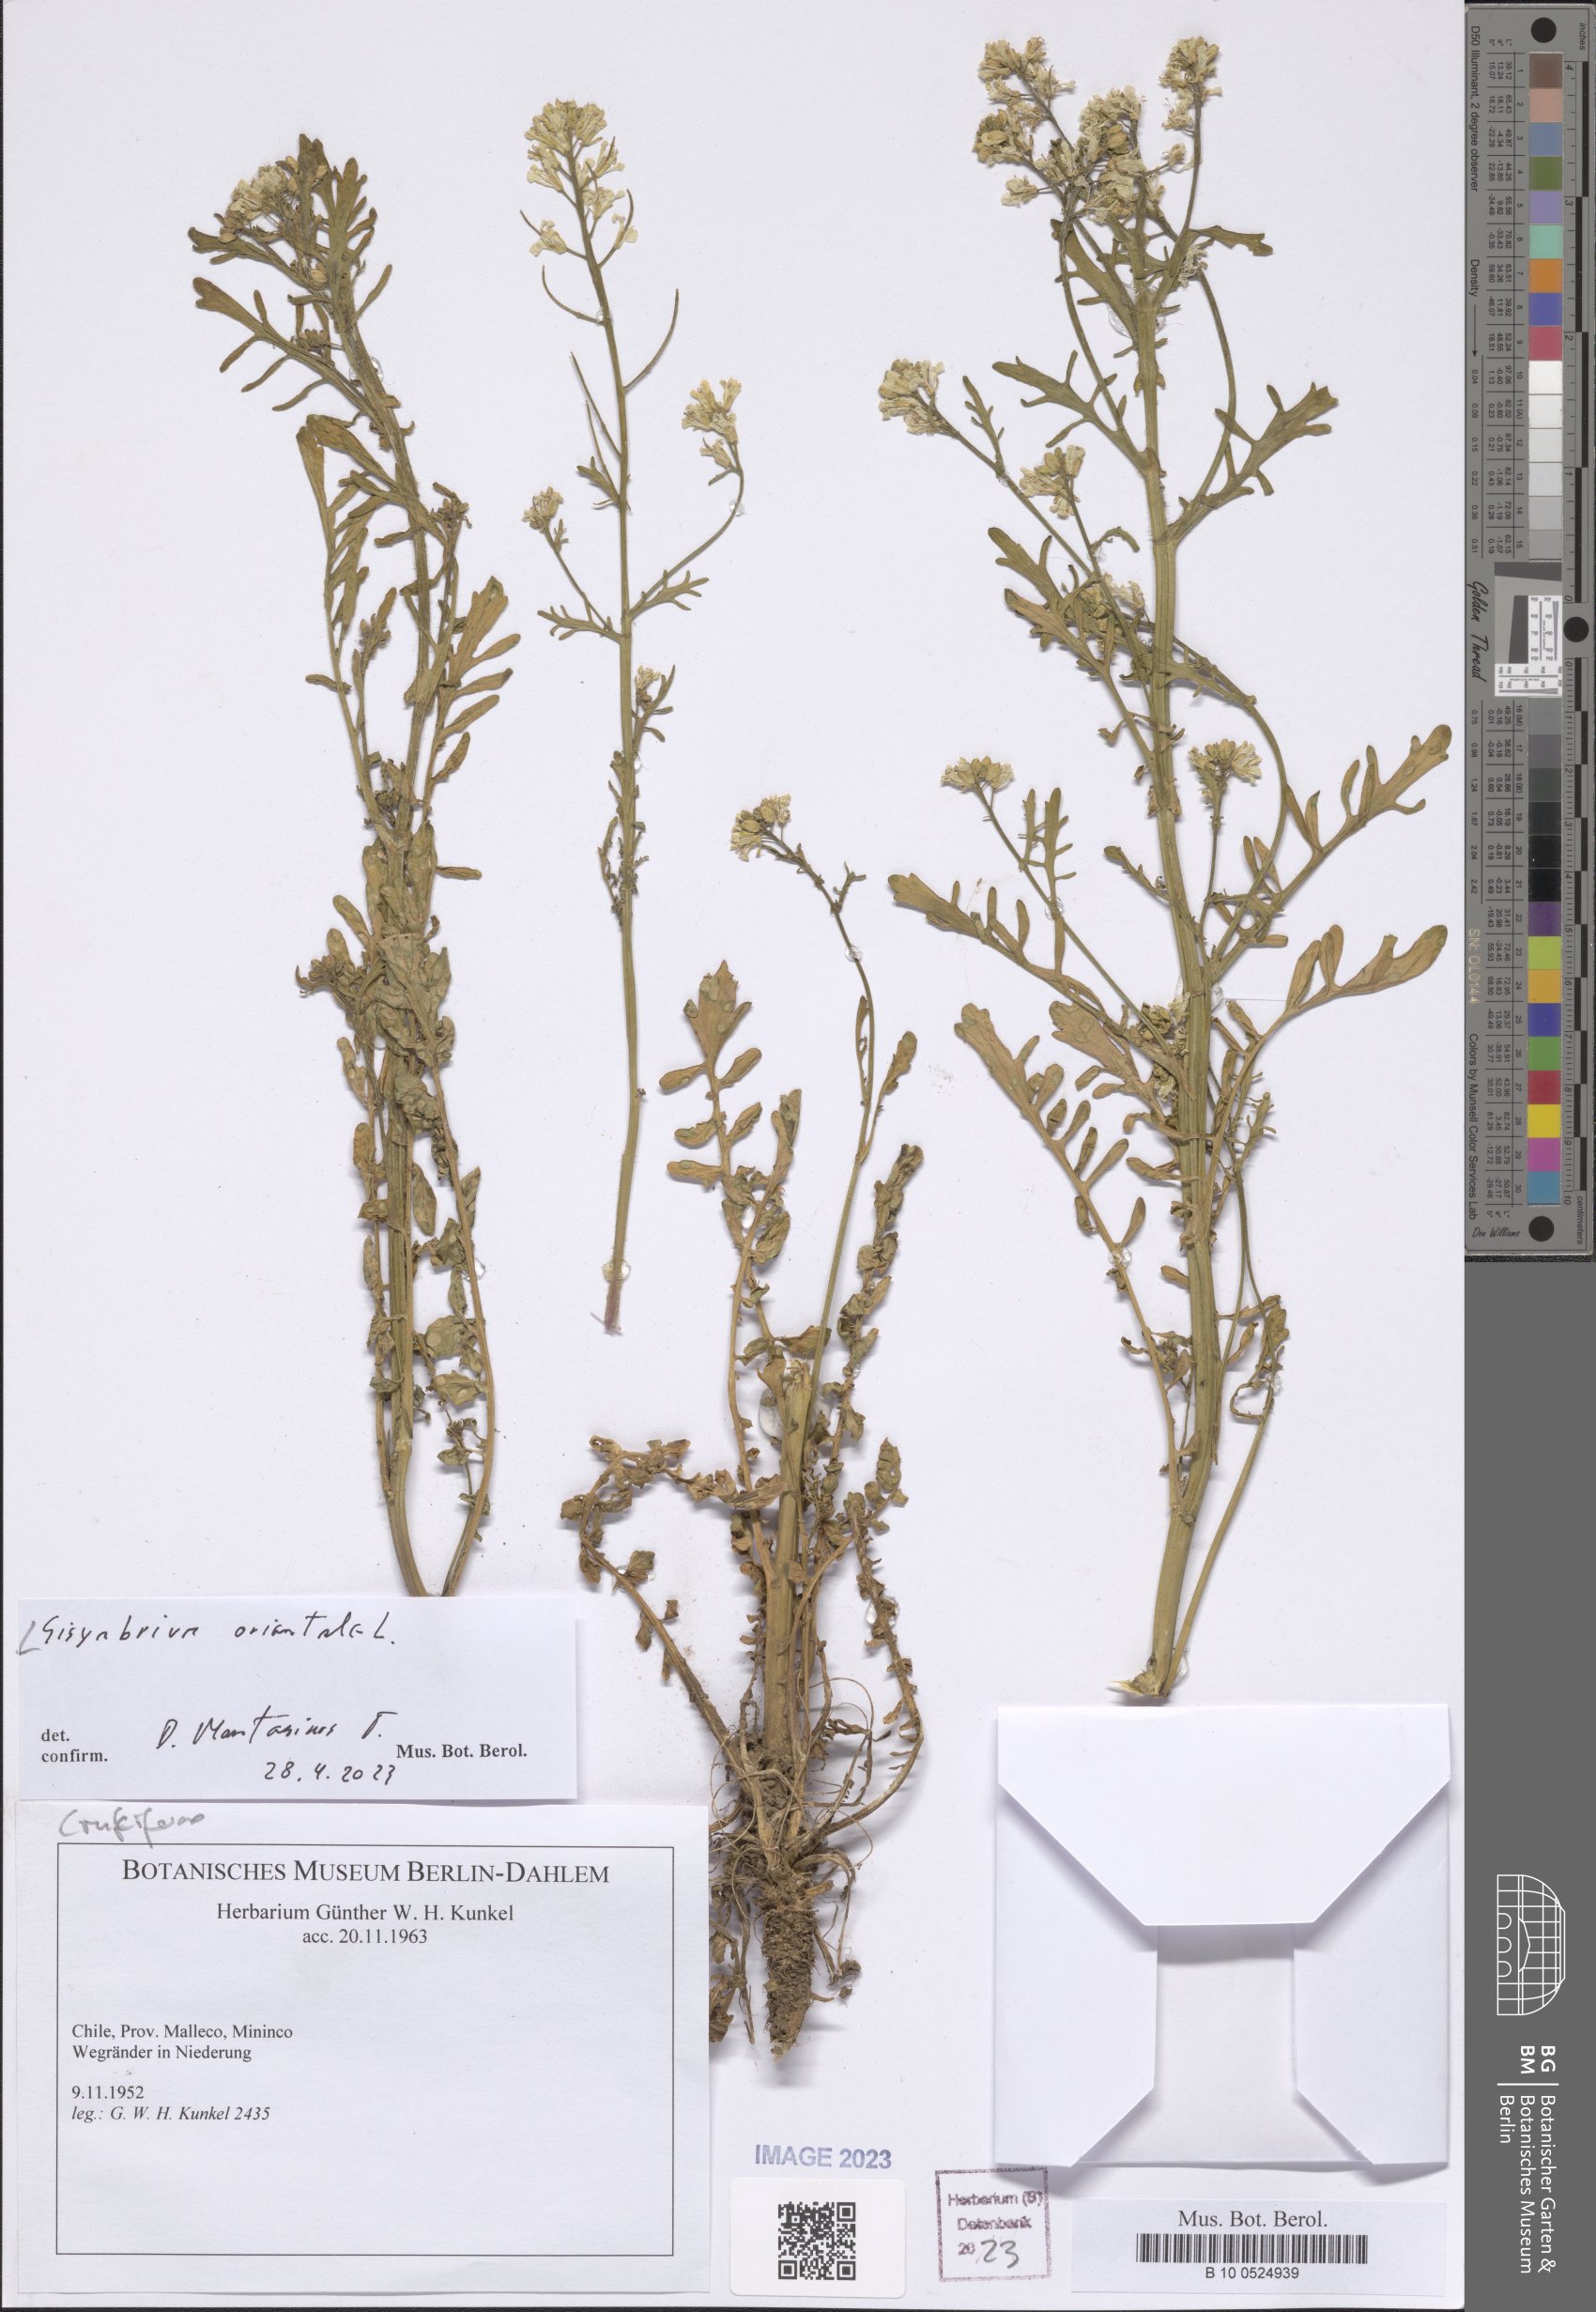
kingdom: Plantae
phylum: Tracheophyta
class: Magnoliopsida
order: Brassicales
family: Brassicaceae
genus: Sisymbrium
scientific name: Sisymbrium orientale
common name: Eastern rocket
